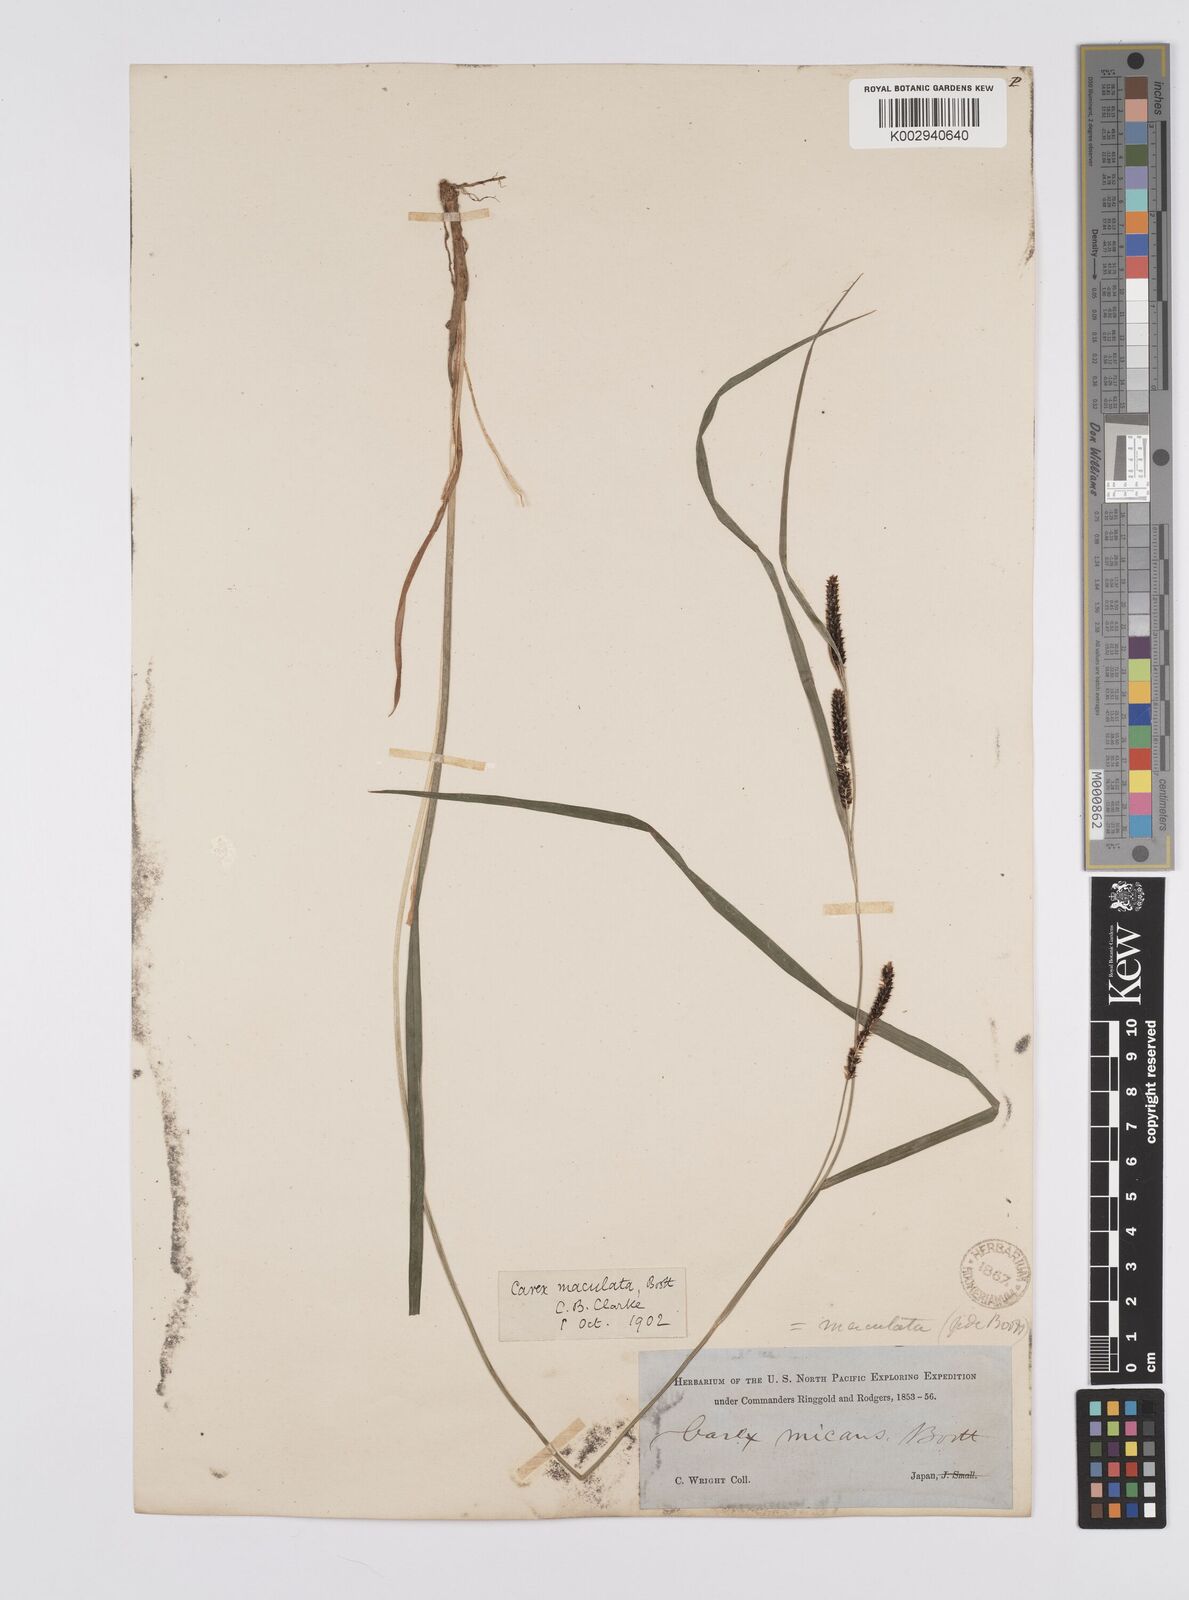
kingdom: Plantae
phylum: Tracheophyta
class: Liliopsida
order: Poales
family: Cyperaceae
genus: Carex
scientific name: Carex maculata
